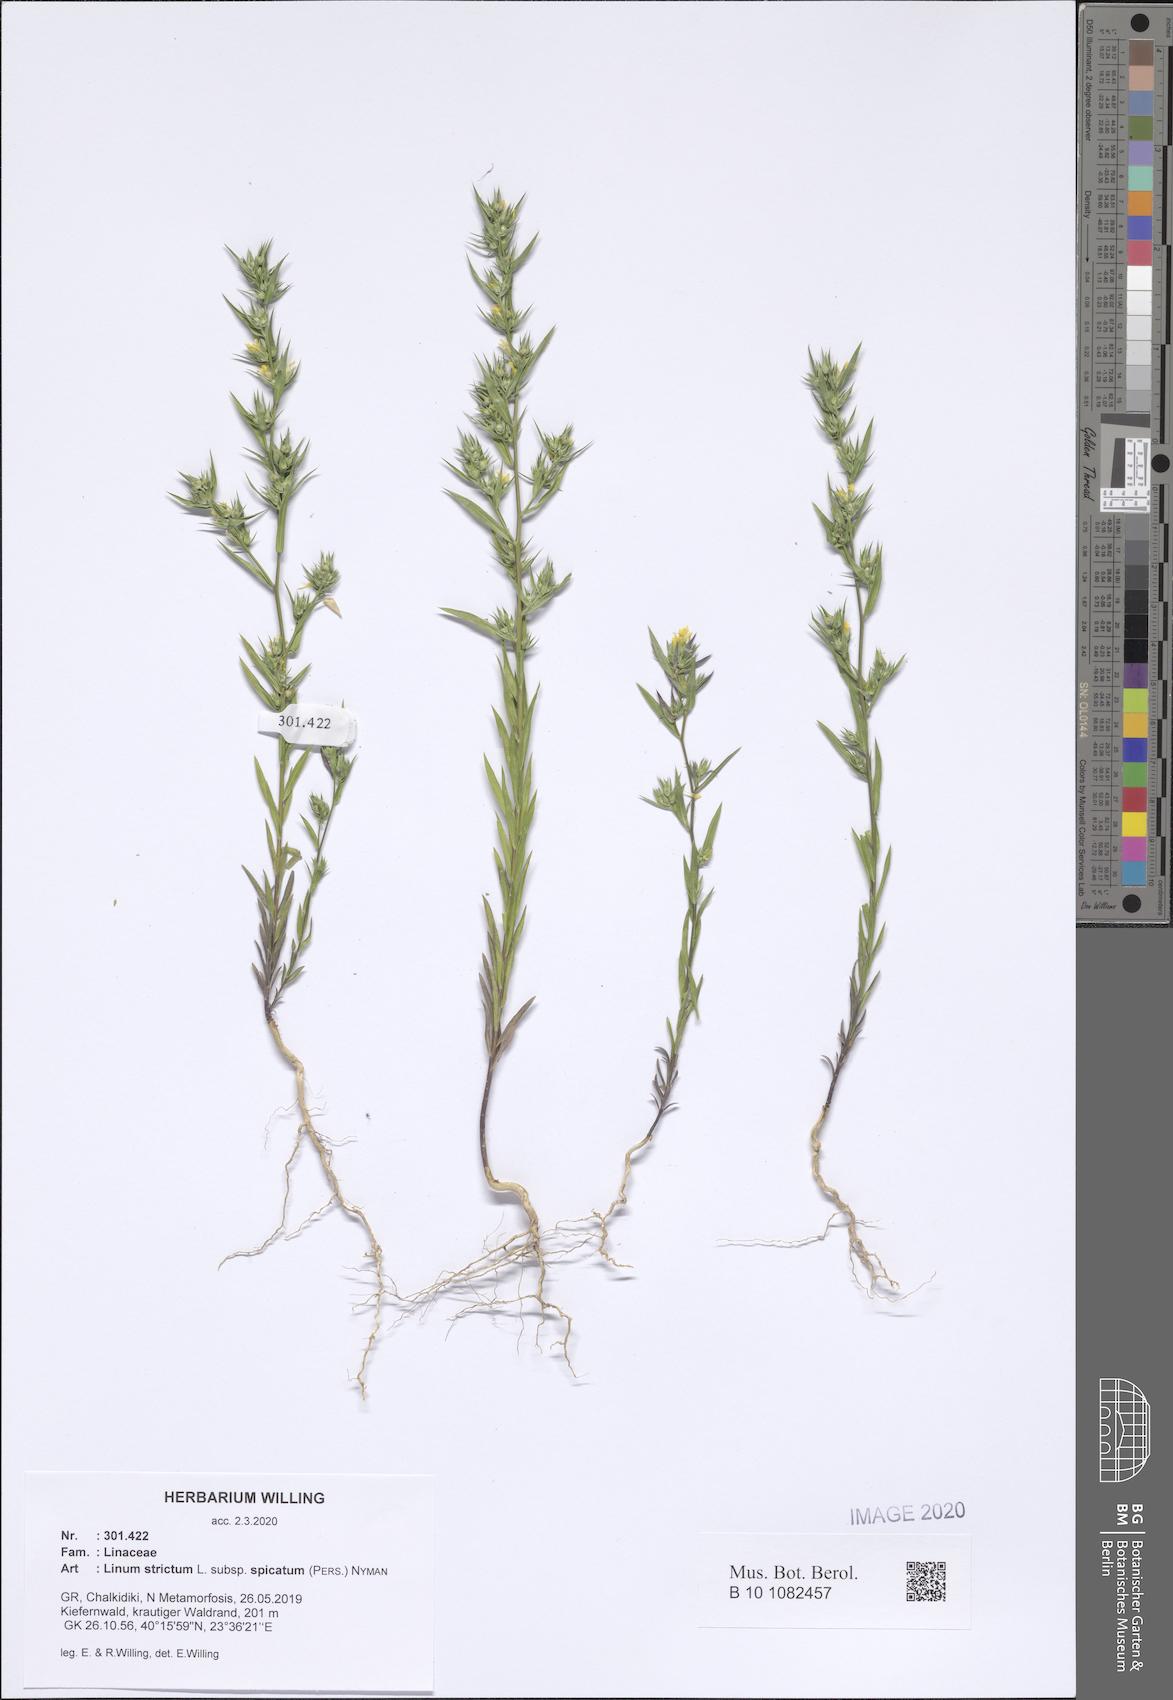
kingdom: Plantae
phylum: Tracheophyta
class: Magnoliopsida
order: Malpighiales
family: Linaceae
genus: Linum
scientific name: Linum strictum
